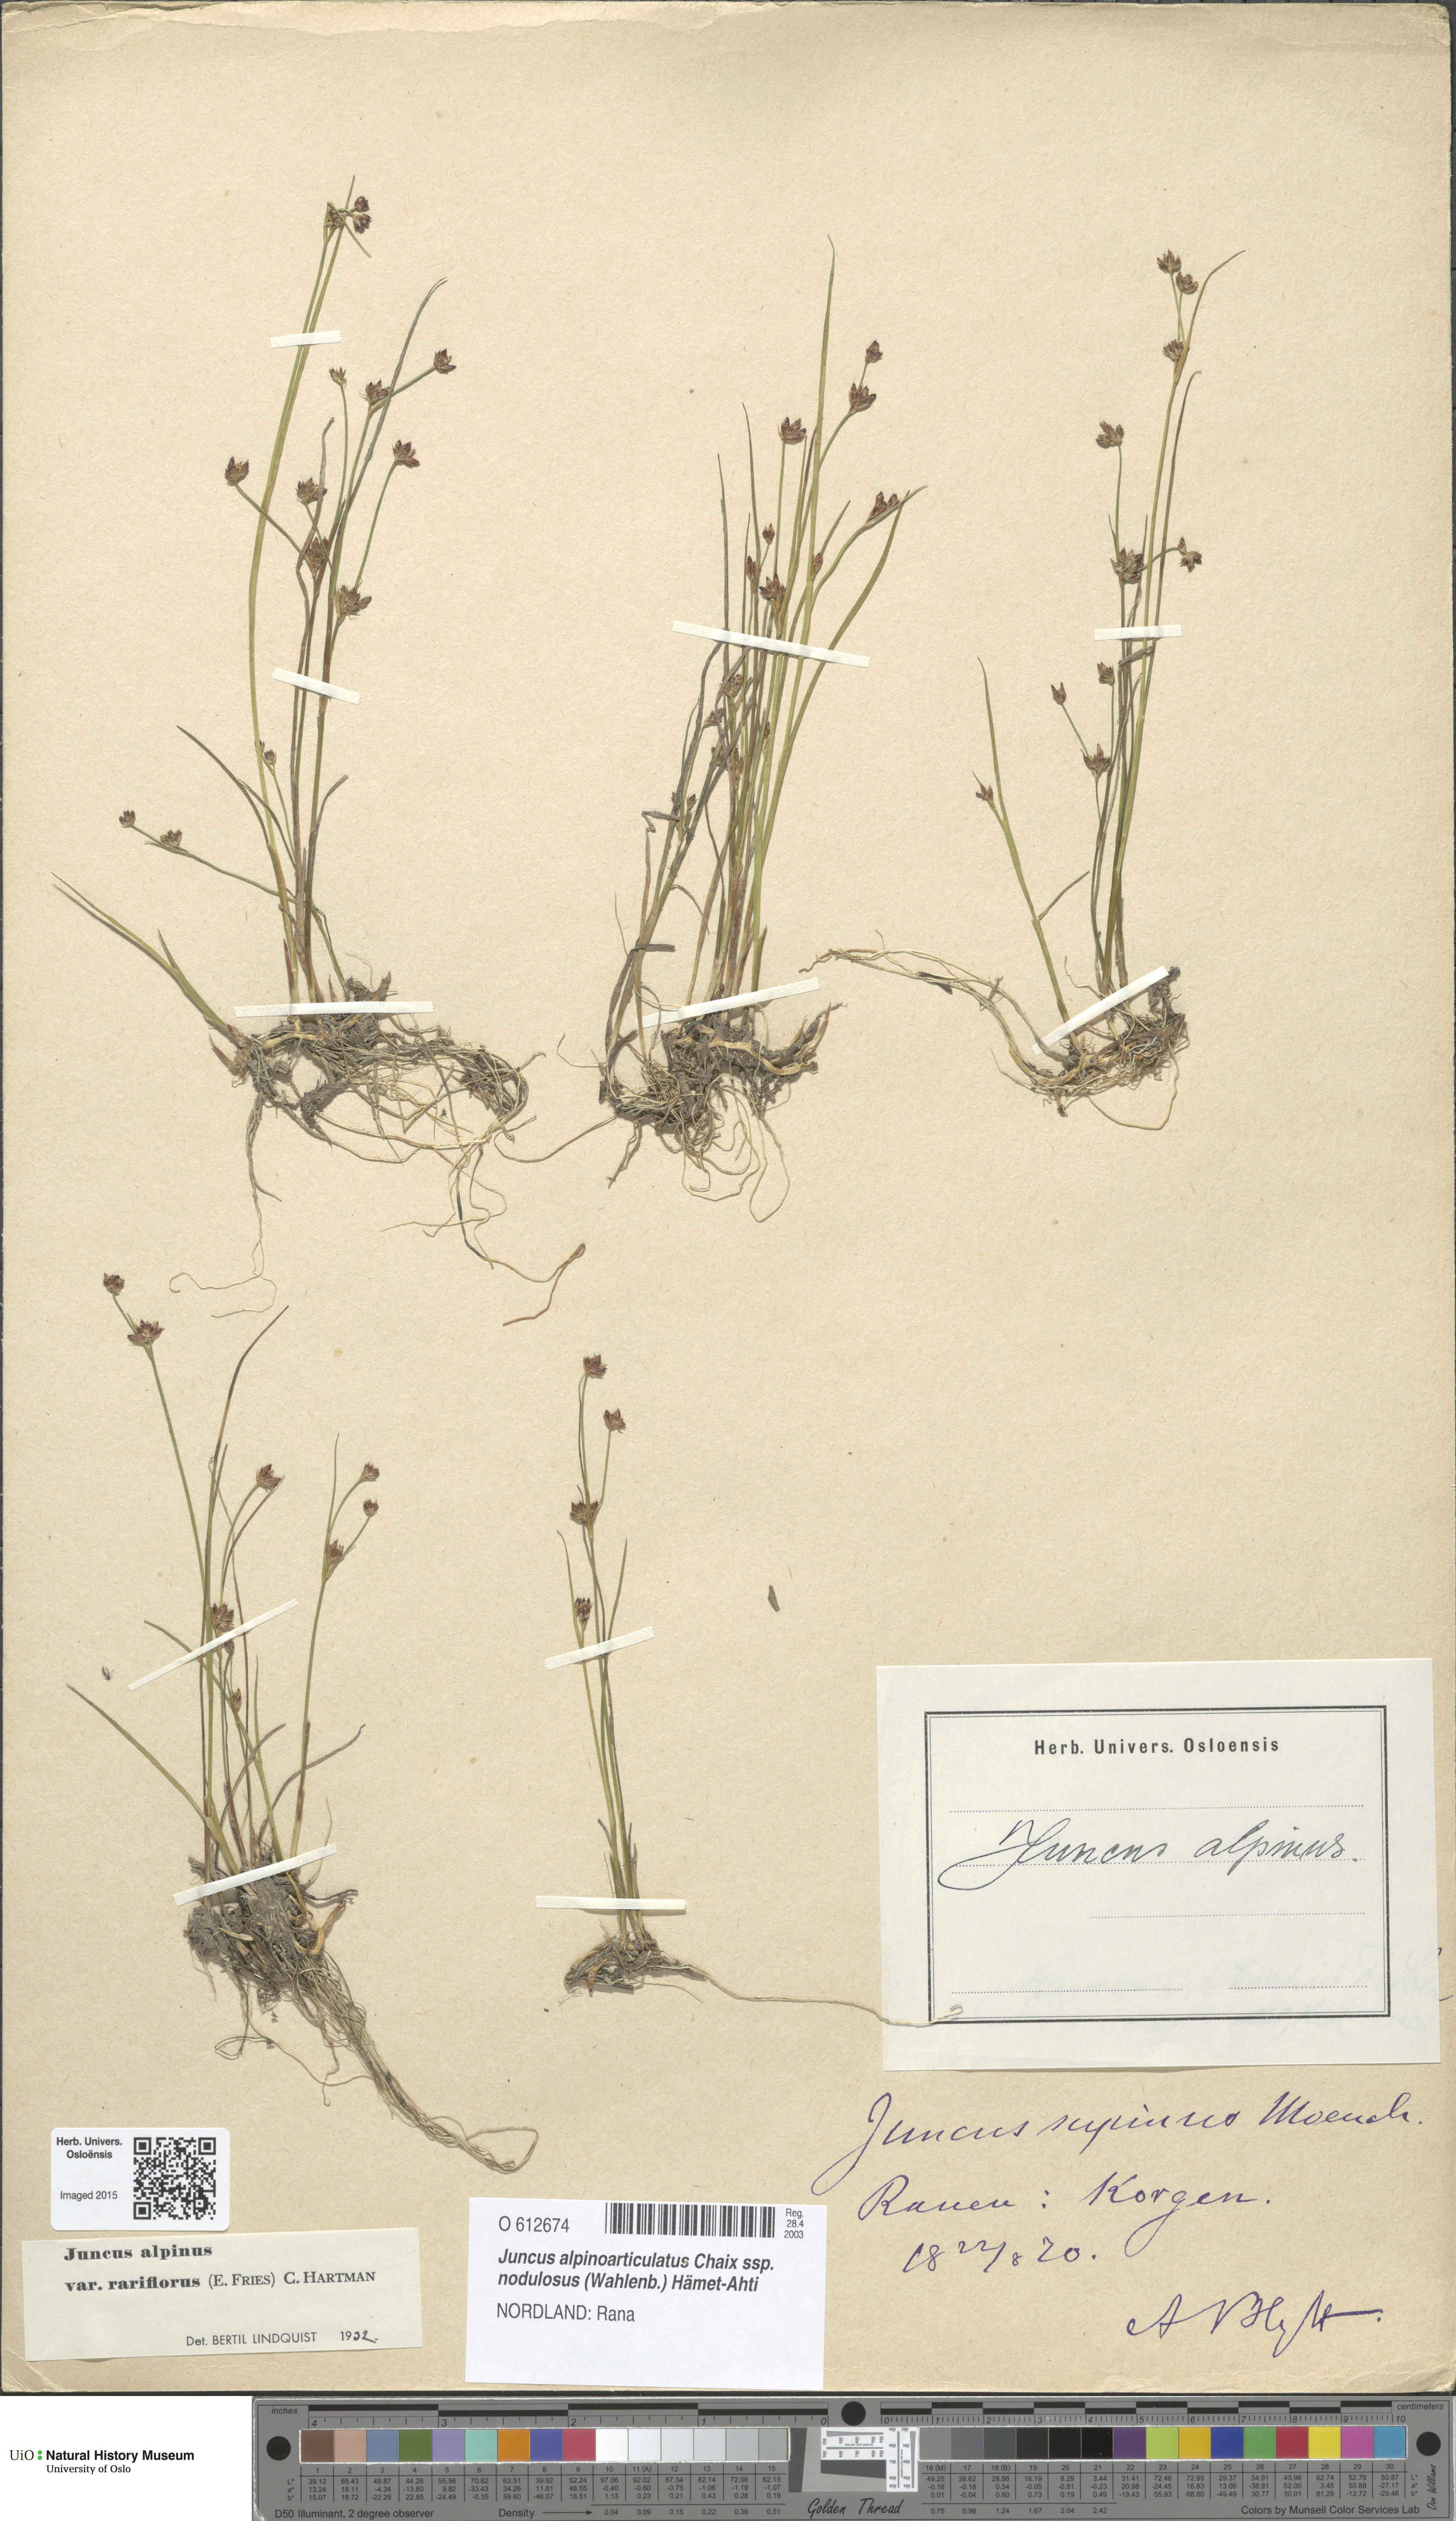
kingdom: Plantae
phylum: Tracheophyta
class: Liliopsida
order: Poales
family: Juncaceae
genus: Juncus
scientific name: Juncus alpinoarticulatus
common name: Alpine rush
